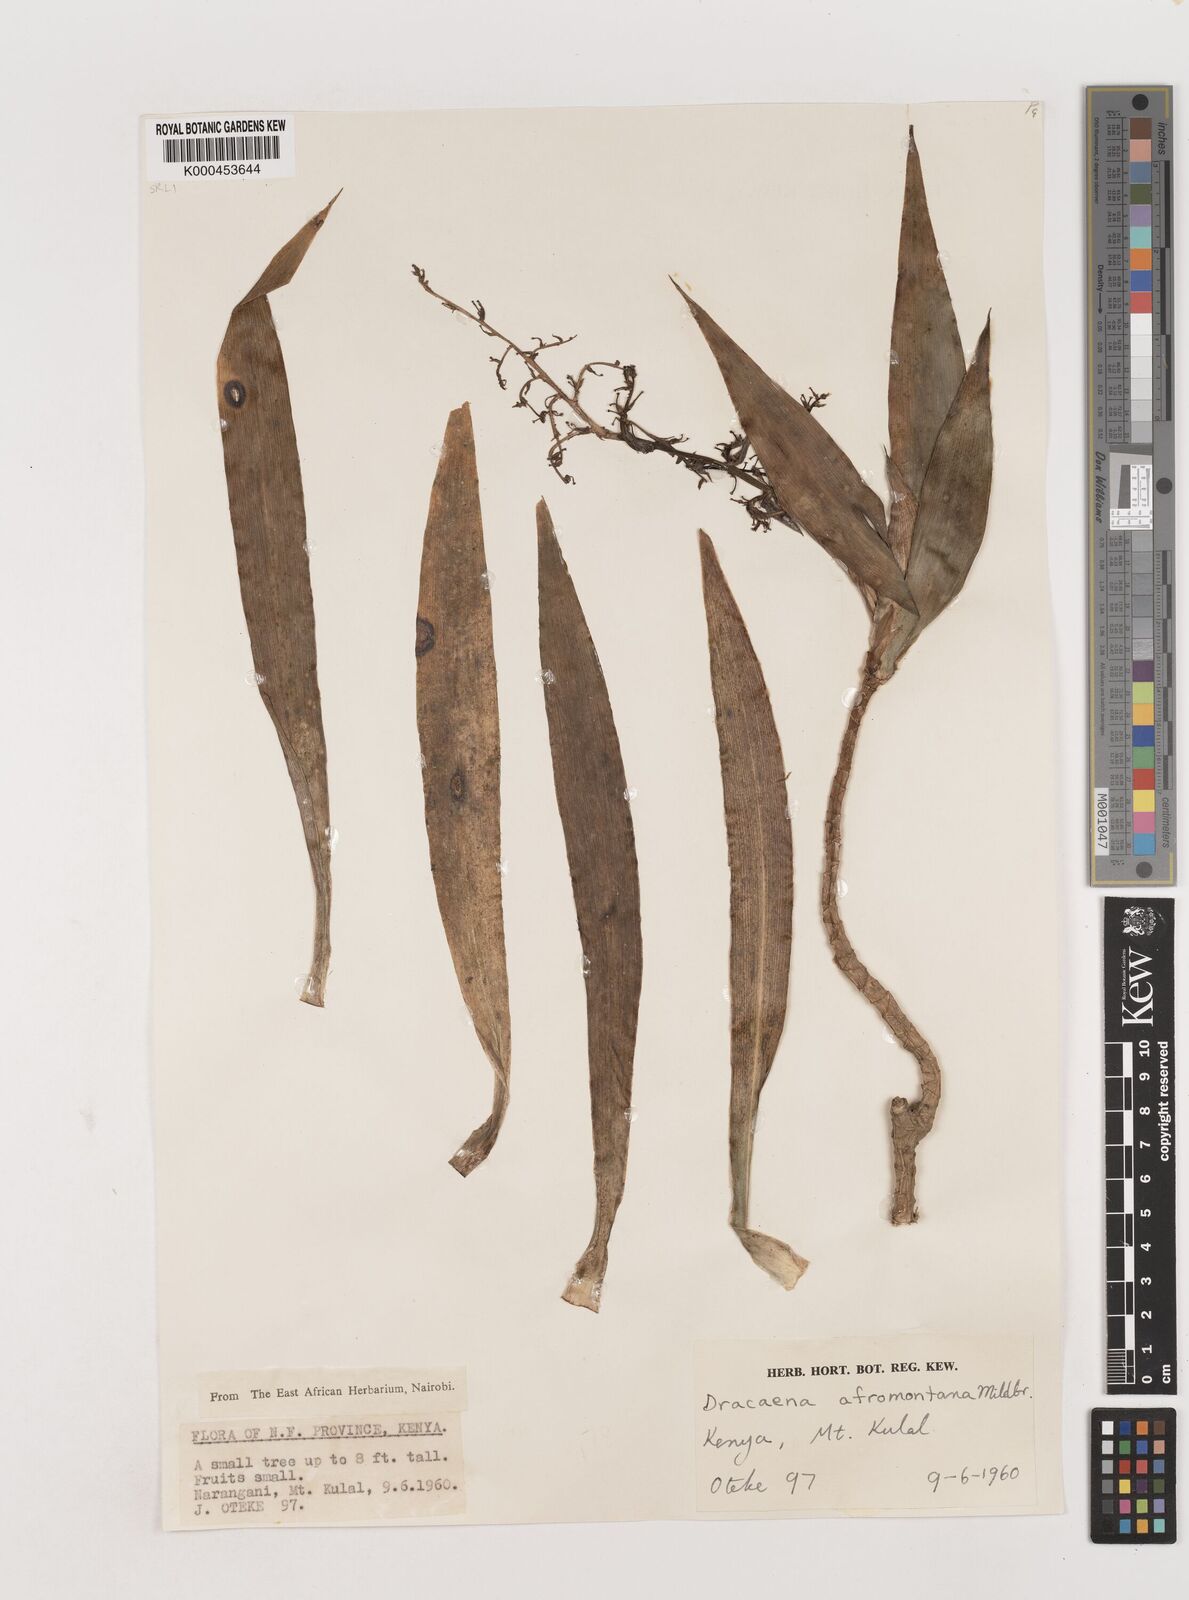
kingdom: Plantae
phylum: Tracheophyta
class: Liliopsida
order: Asparagales
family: Asparagaceae
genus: Dracaena
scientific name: Dracaena afromontana
